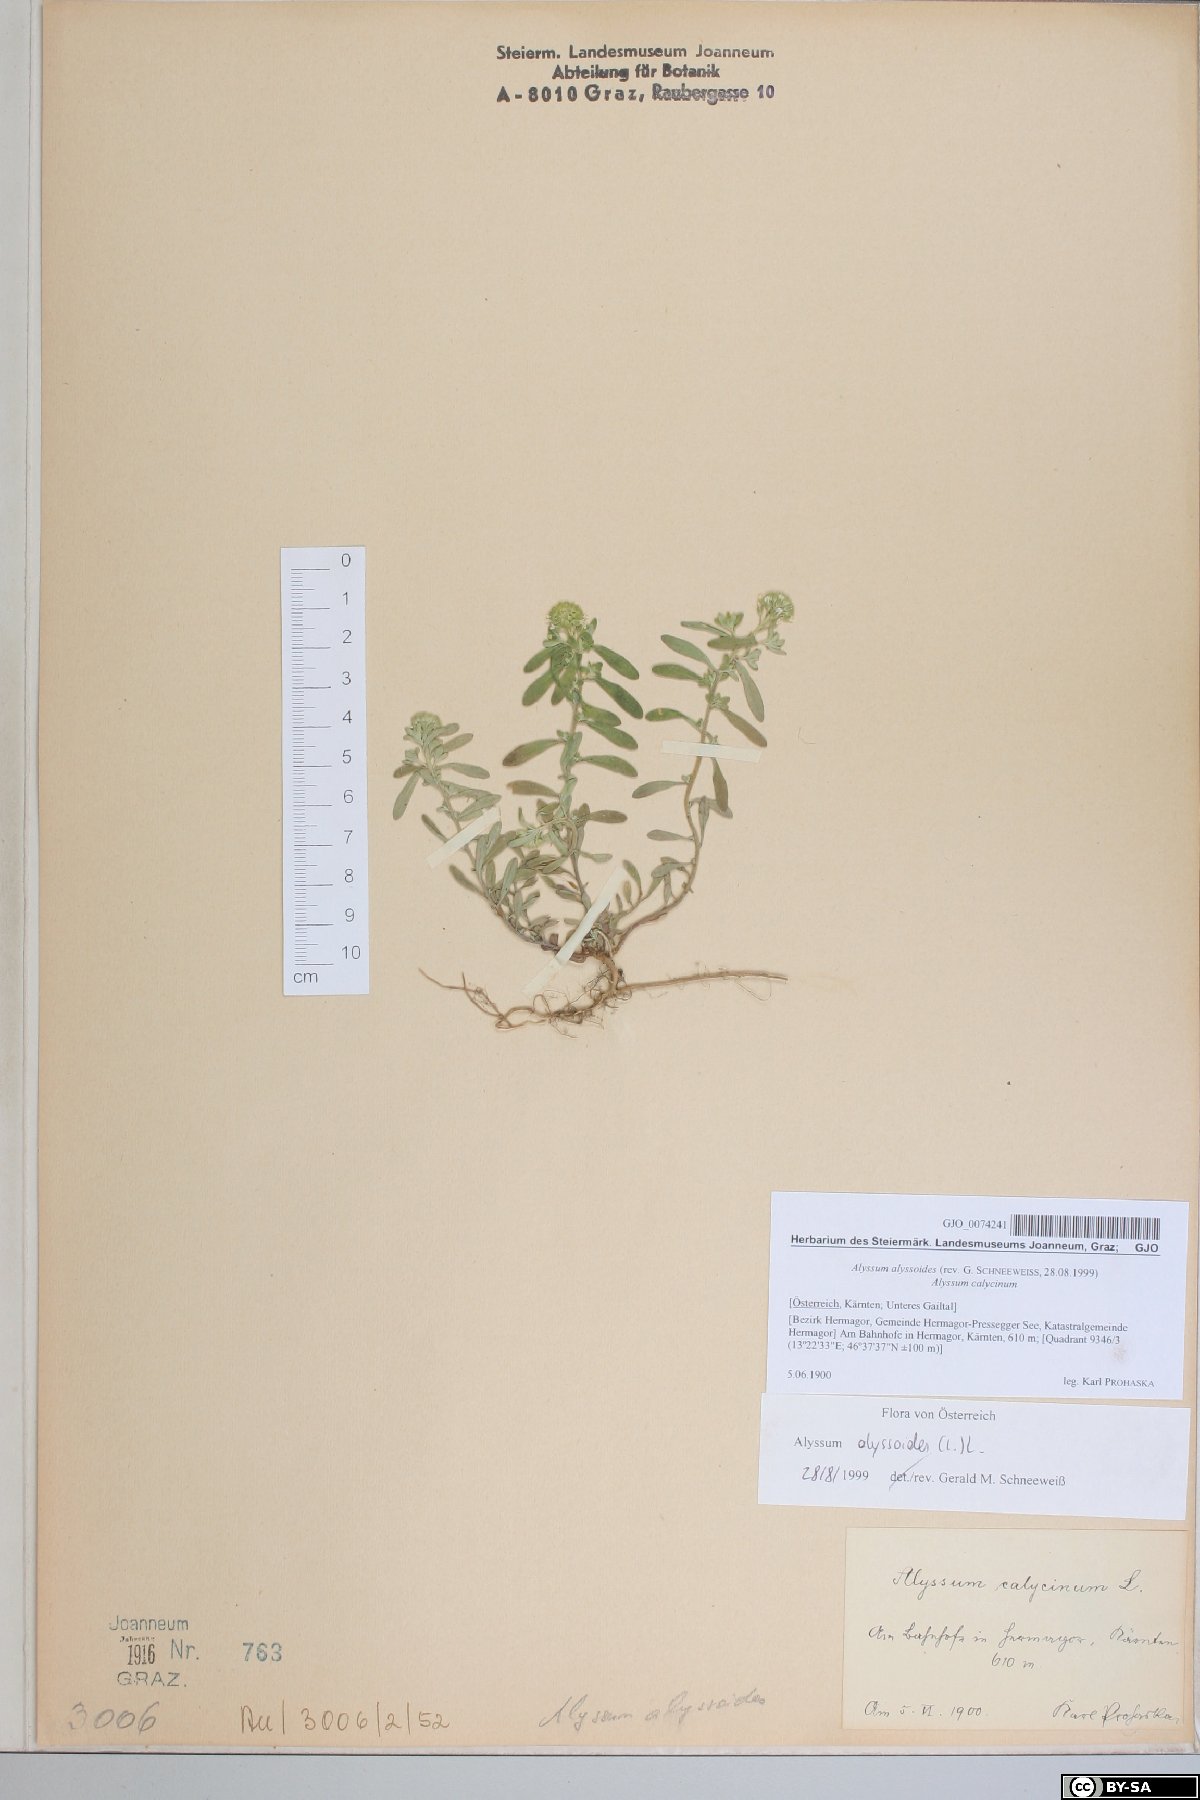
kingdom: Plantae
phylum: Tracheophyta
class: Magnoliopsida
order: Brassicales
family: Brassicaceae
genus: Alyssum
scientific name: Alyssum alyssoides
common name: Small alison
